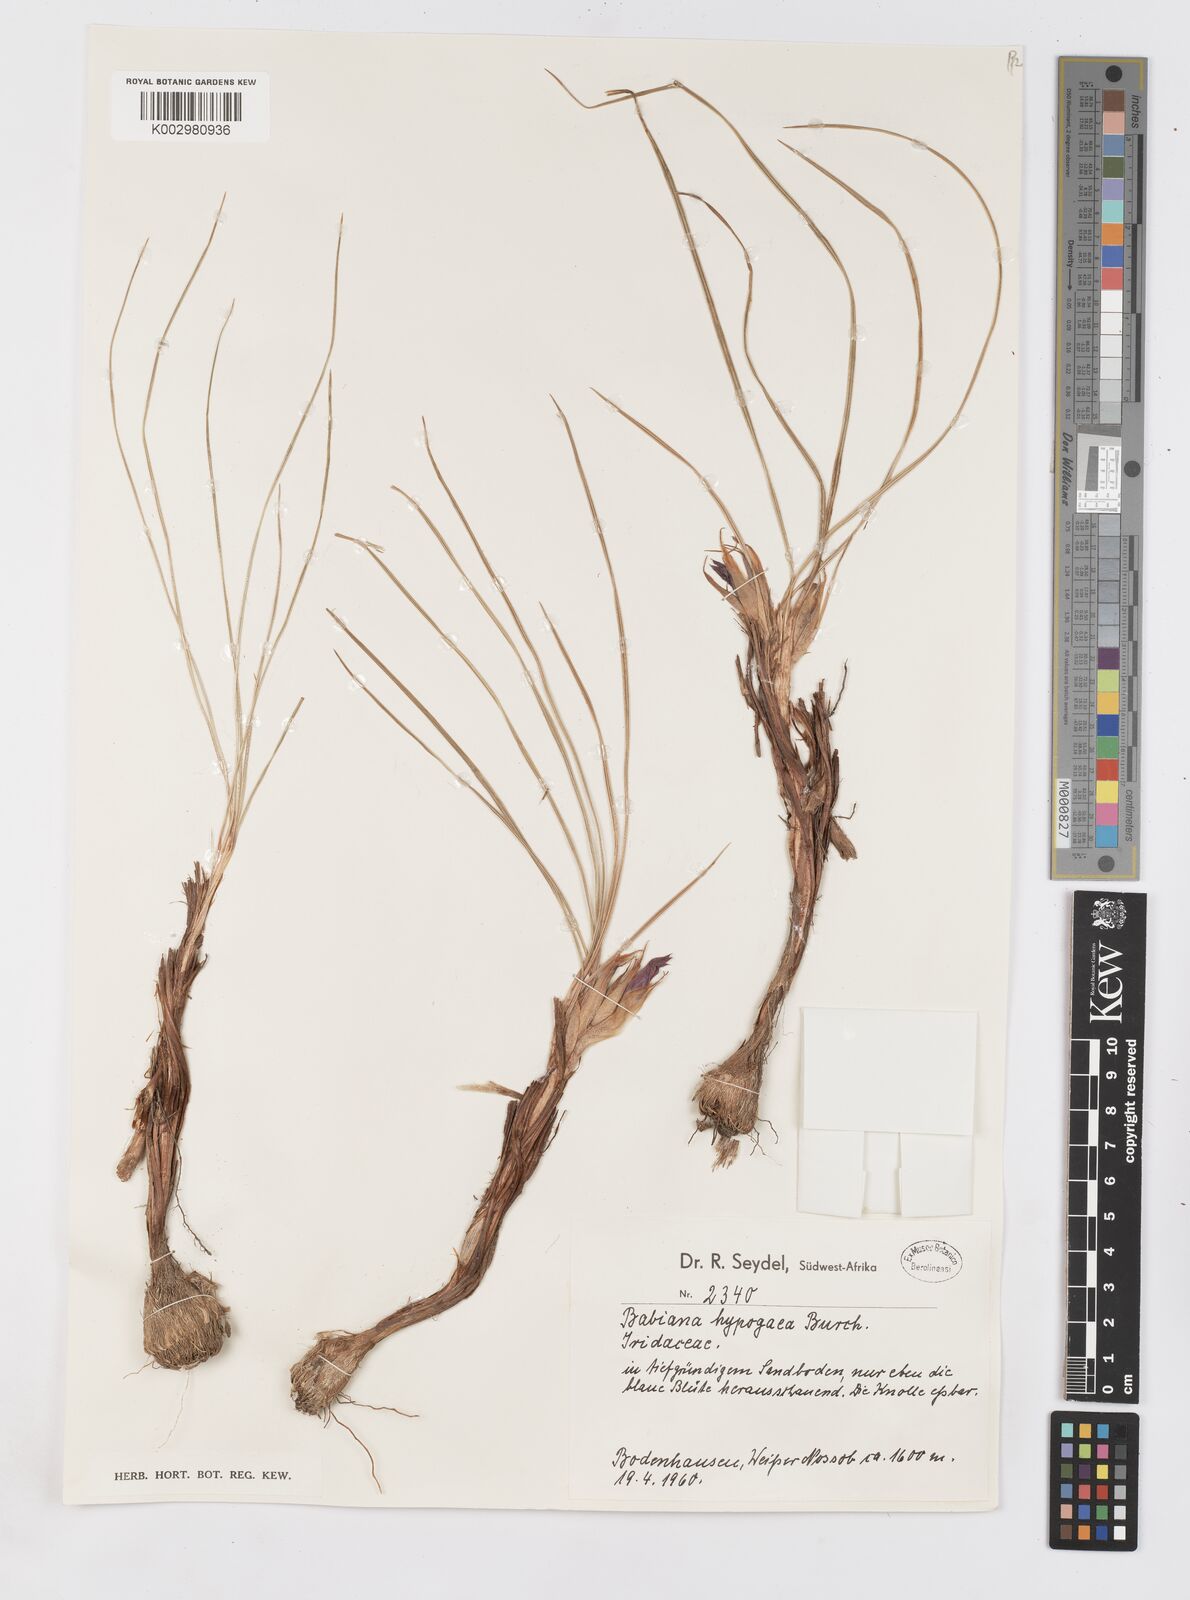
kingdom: Plantae
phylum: Tracheophyta
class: Liliopsida
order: Asparagales
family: Iridaceae
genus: Babiana
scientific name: Babiana hypogaea
